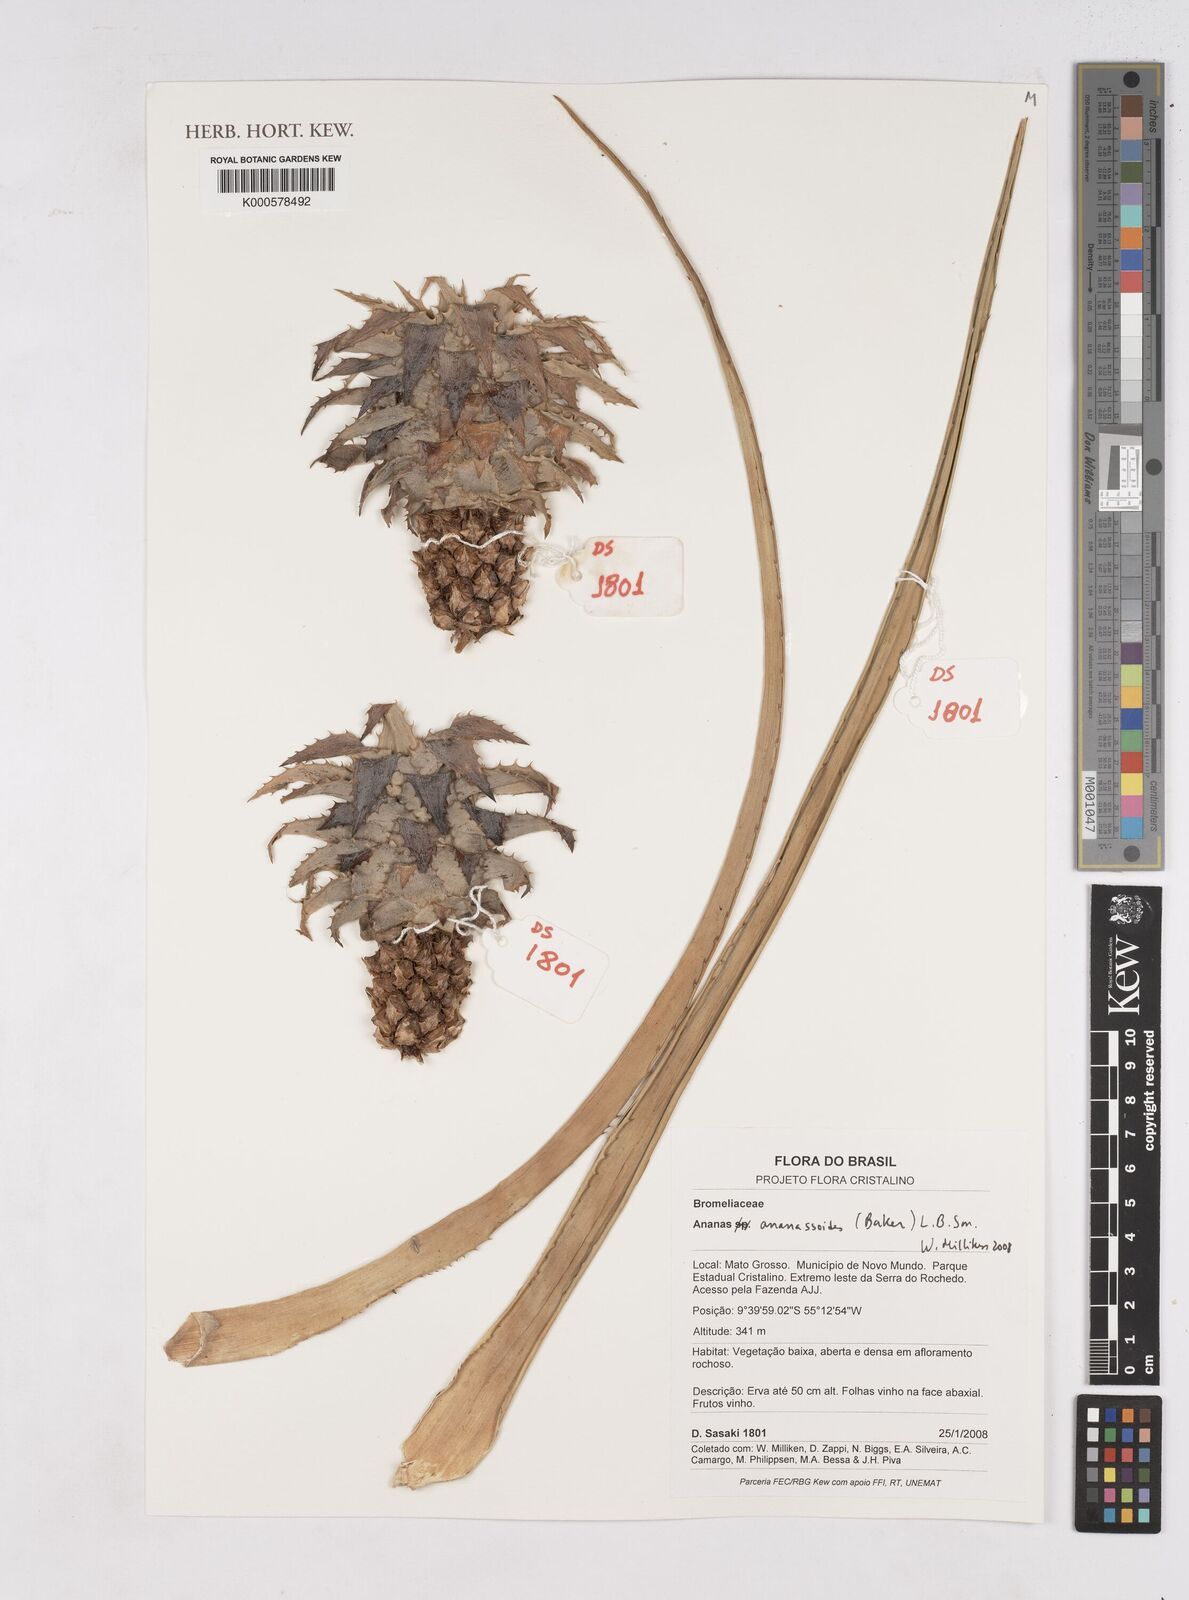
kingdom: Plantae
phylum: Tracheophyta
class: Liliopsida
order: Poales
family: Bromeliaceae
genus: Ananas
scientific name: Ananas comosus
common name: Pineapple
